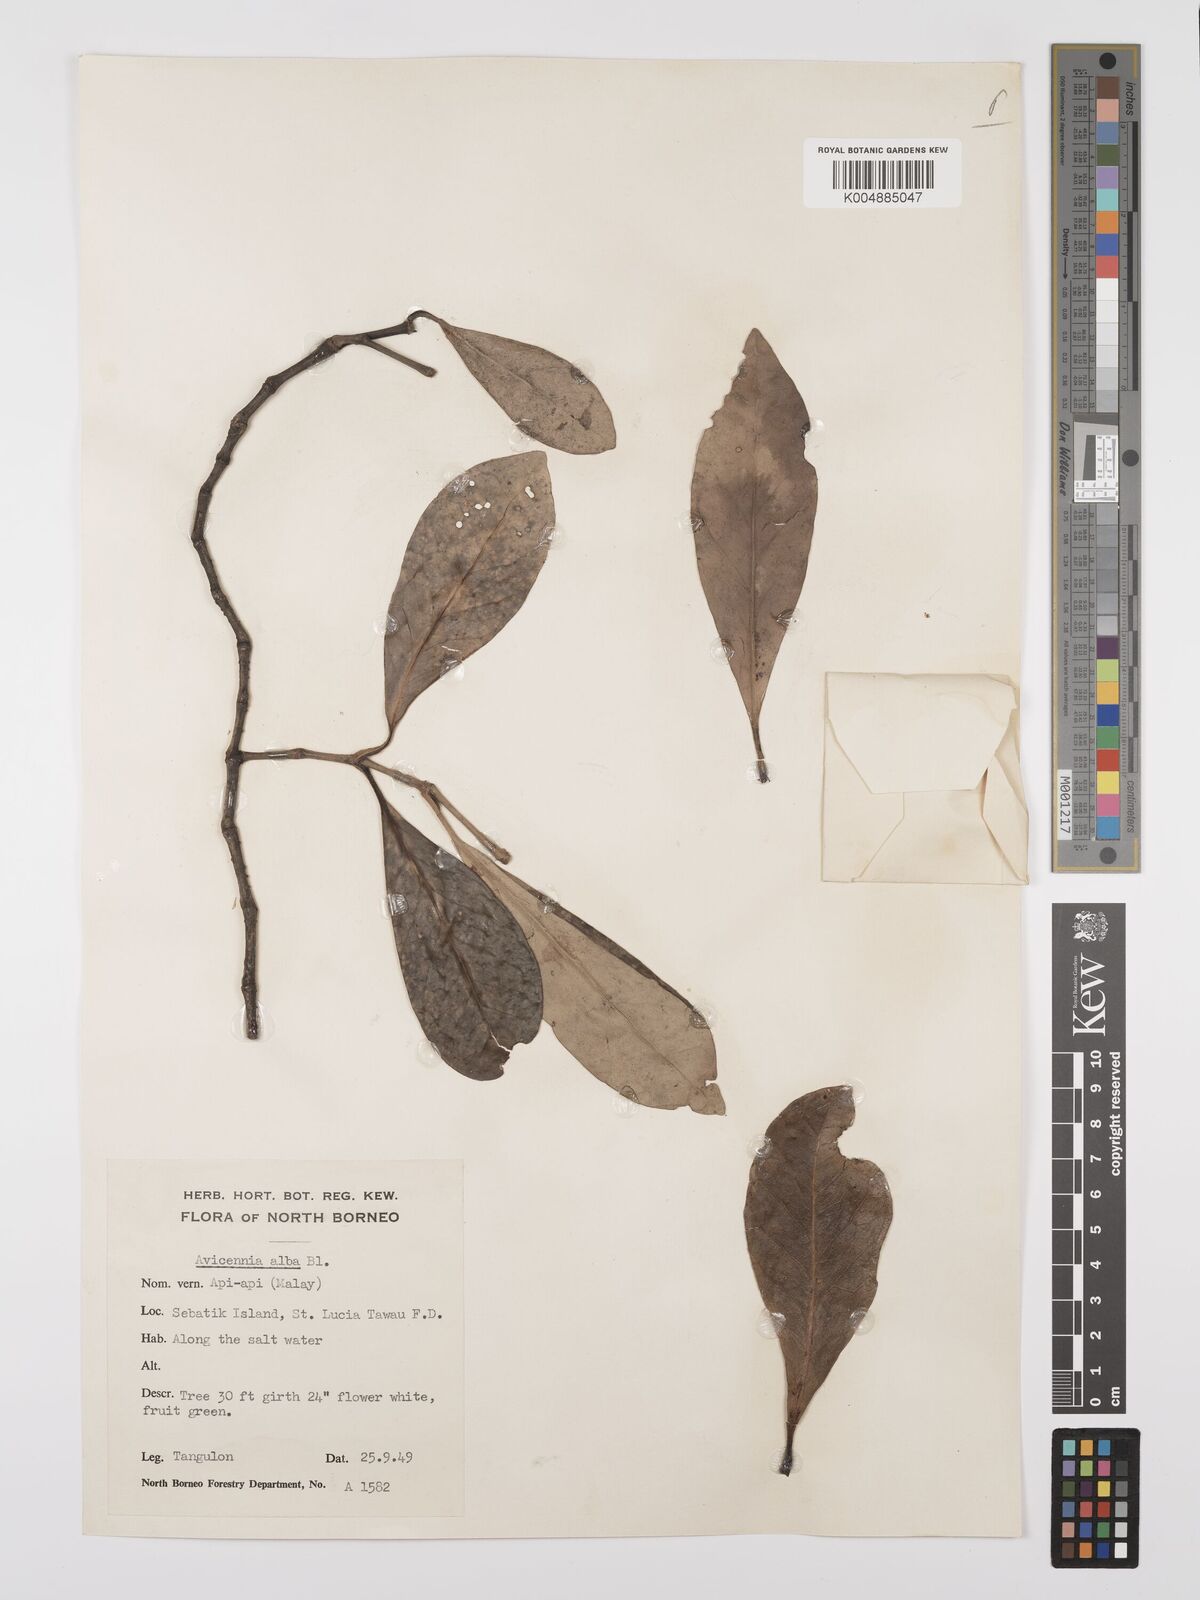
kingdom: Plantae
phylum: Tracheophyta
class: Magnoliopsida
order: Lamiales
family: Acanthaceae
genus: Avicennia
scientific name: Avicennia alba
